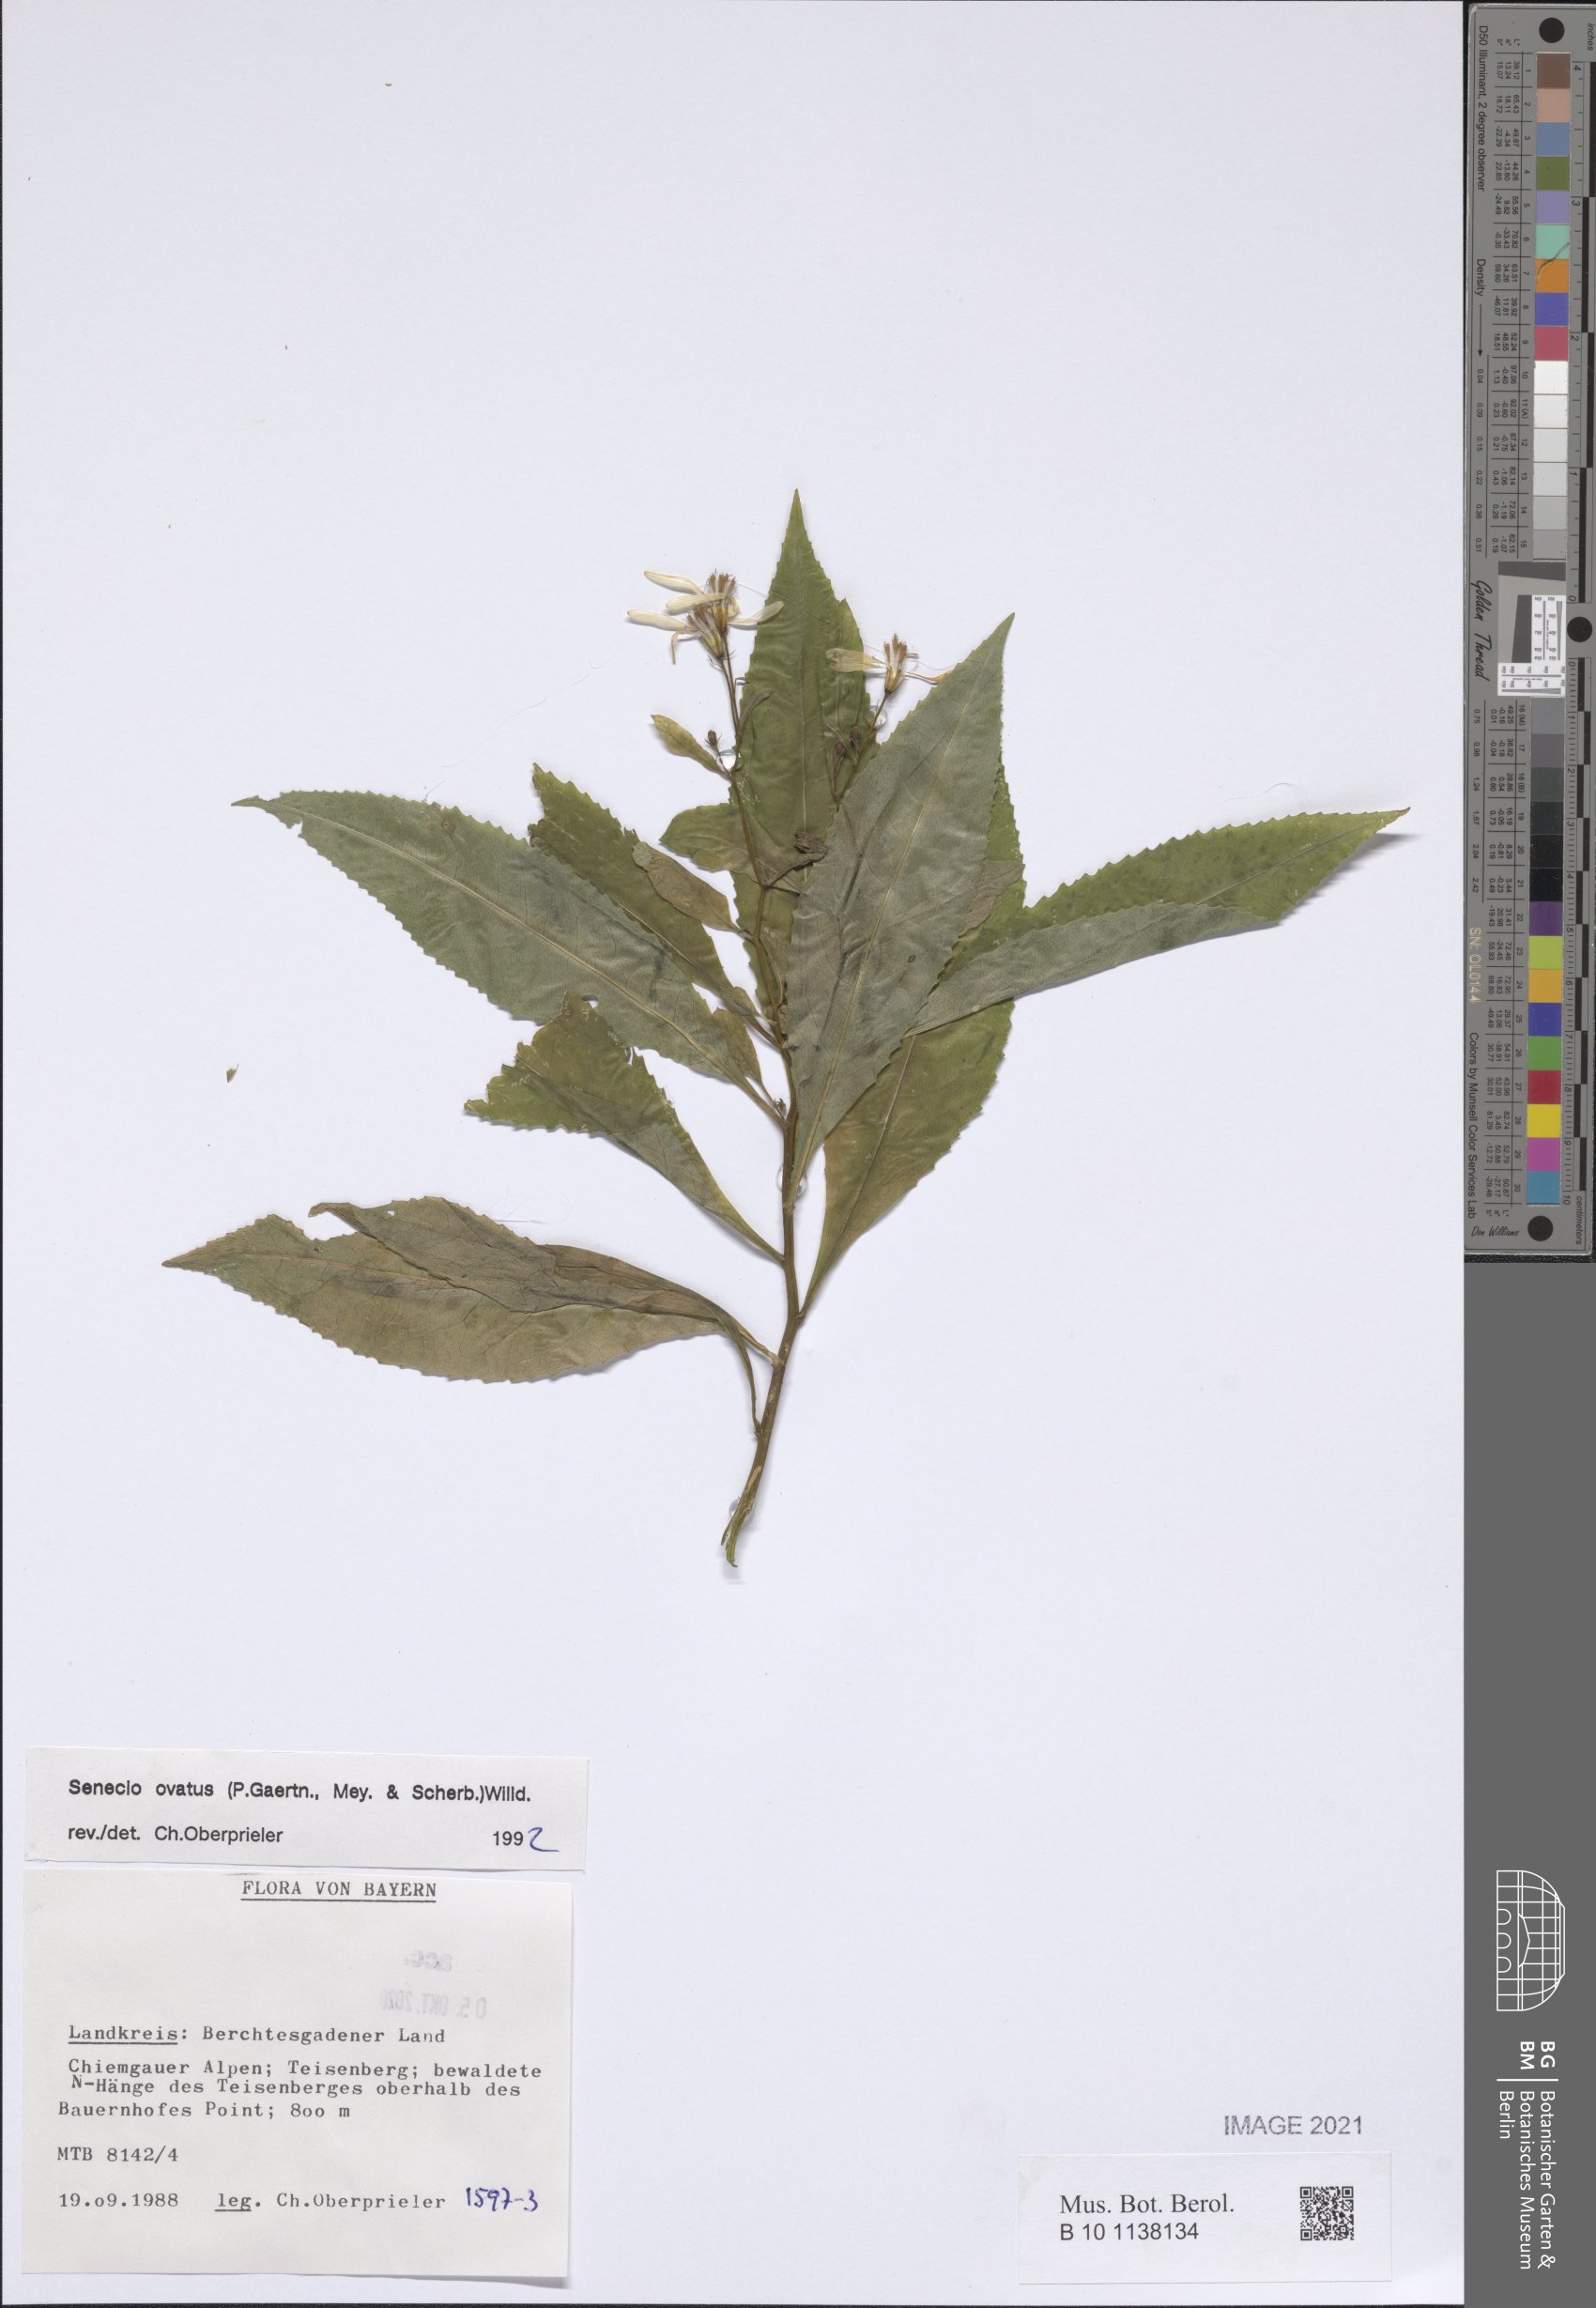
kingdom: Plantae
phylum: Tracheophyta
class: Magnoliopsida
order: Asterales
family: Asteraceae
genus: Senecio
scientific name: Senecio ovatus
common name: Wood ragwort
